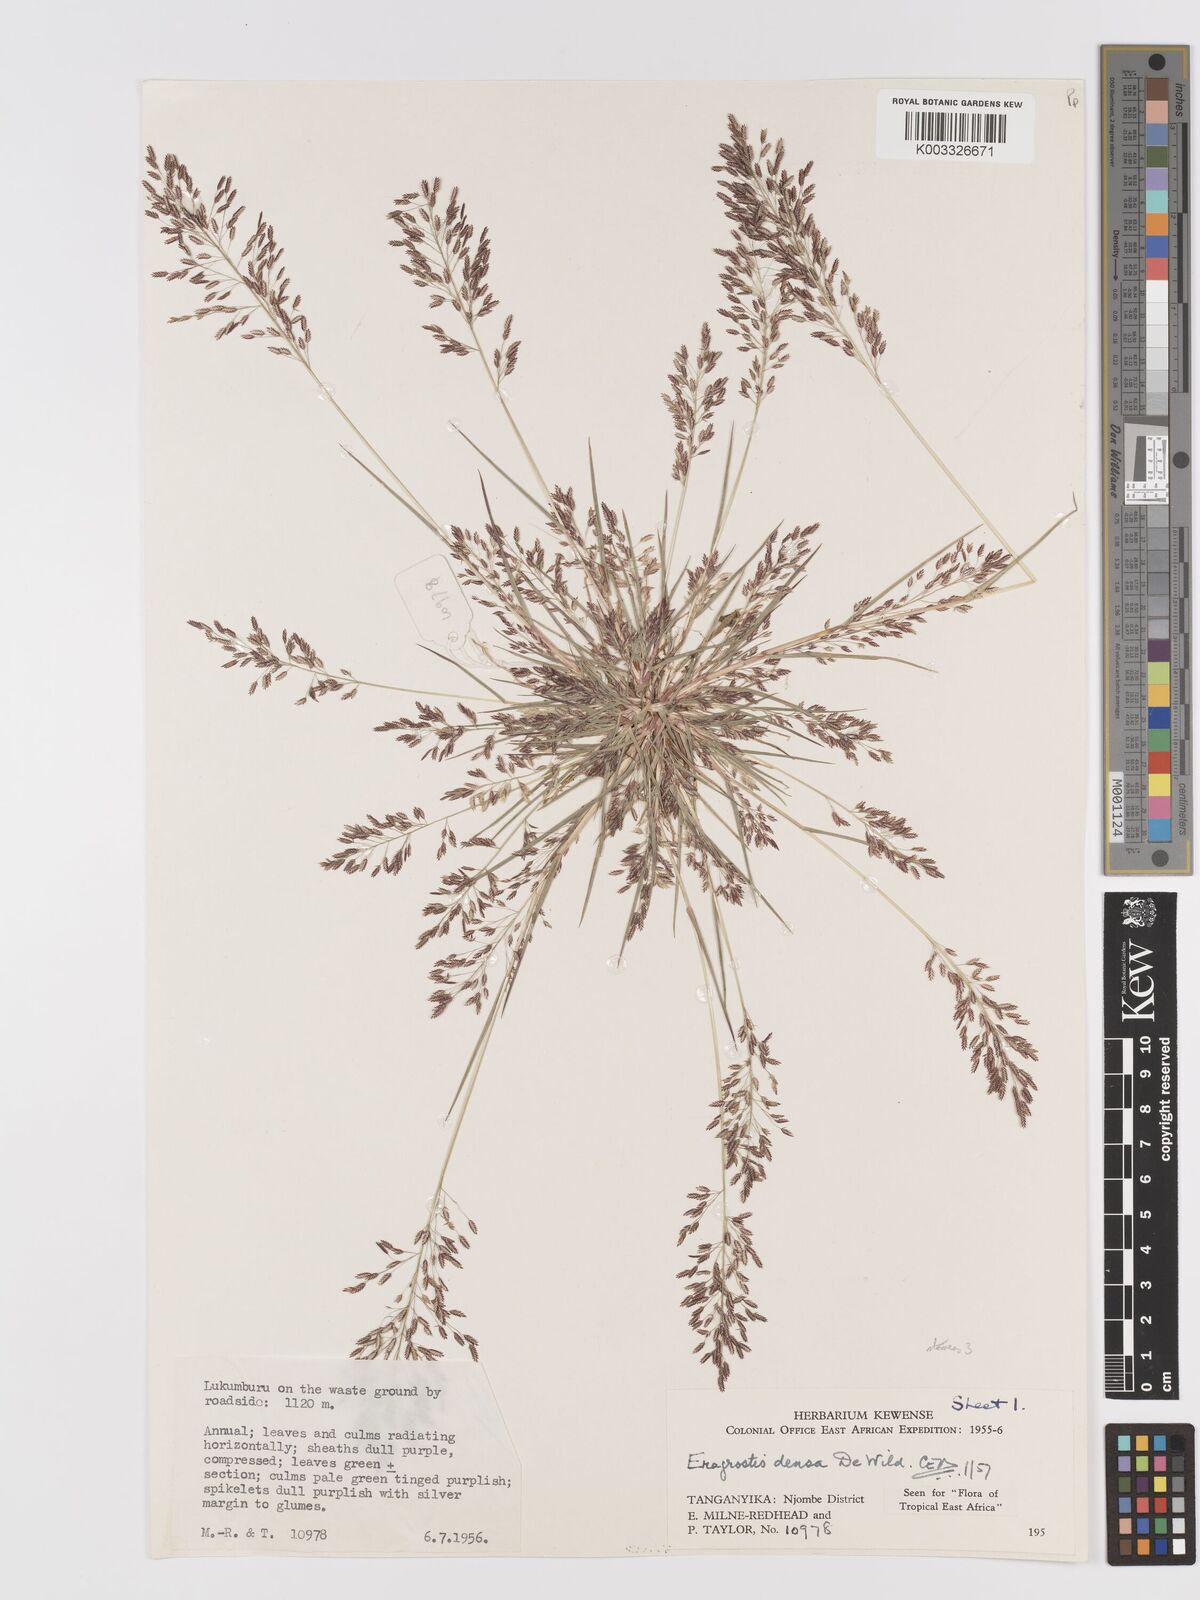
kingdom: Plantae
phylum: Tracheophyta
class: Liliopsida
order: Poales
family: Poaceae
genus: Eragrostis
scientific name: Eragrostis welwitschii
